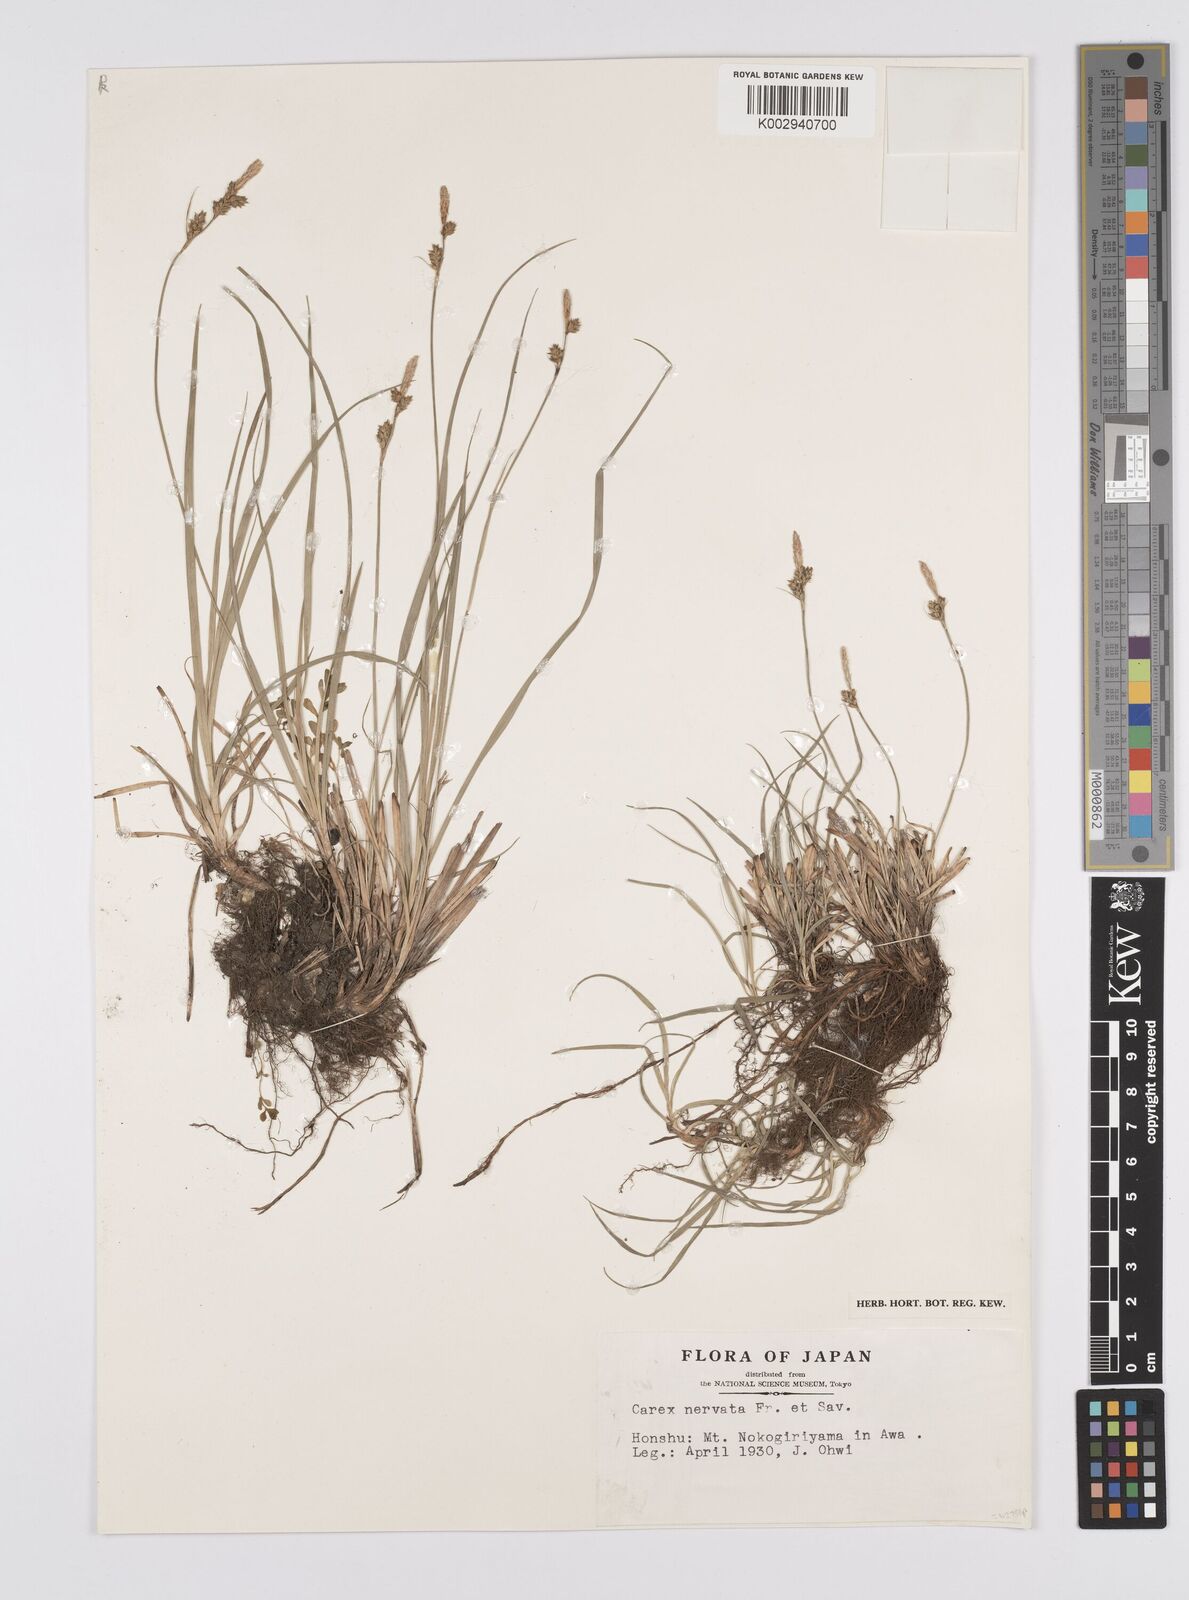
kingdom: Plantae
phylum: Tracheophyta
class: Liliopsida
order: Poales
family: Cyperaceae
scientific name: Cyperaceae
